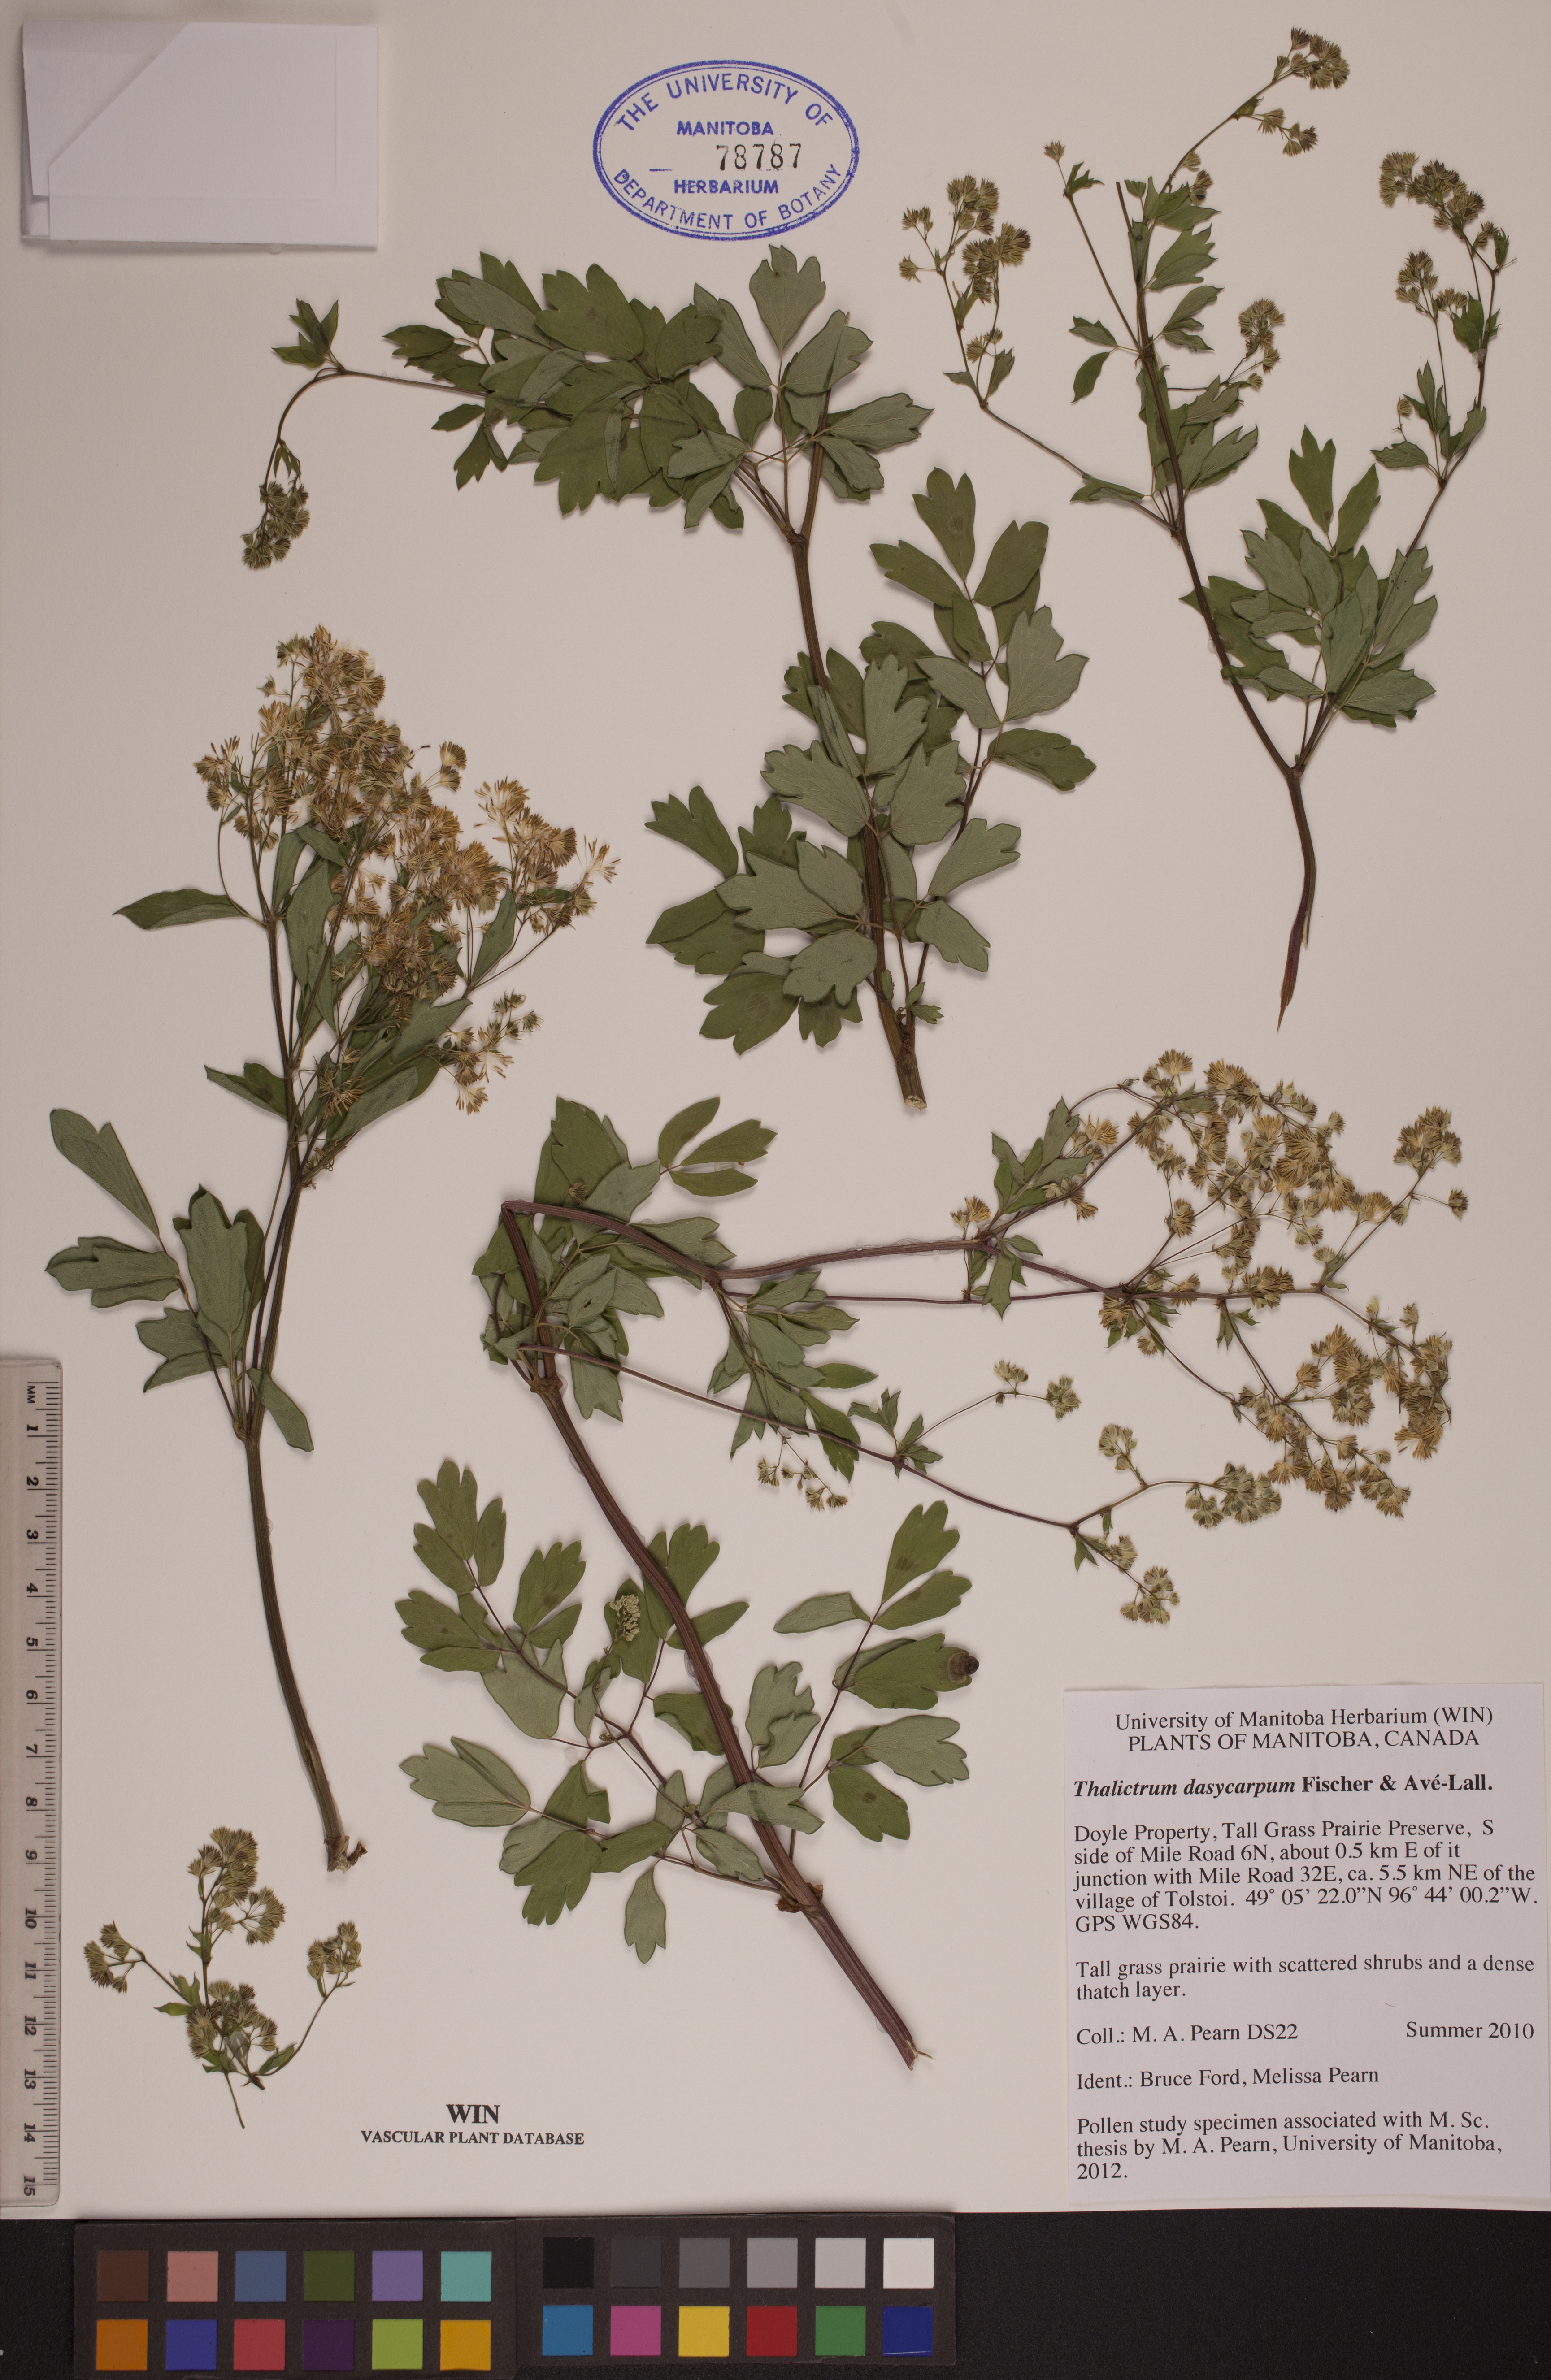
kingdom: Plantae
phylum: Tracheophyta
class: Magnoliopsida
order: Ranunculales
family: Ranunculaceae
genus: Thalictrum
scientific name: Thalictrum dasycarpum
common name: Purple meadow-rue
